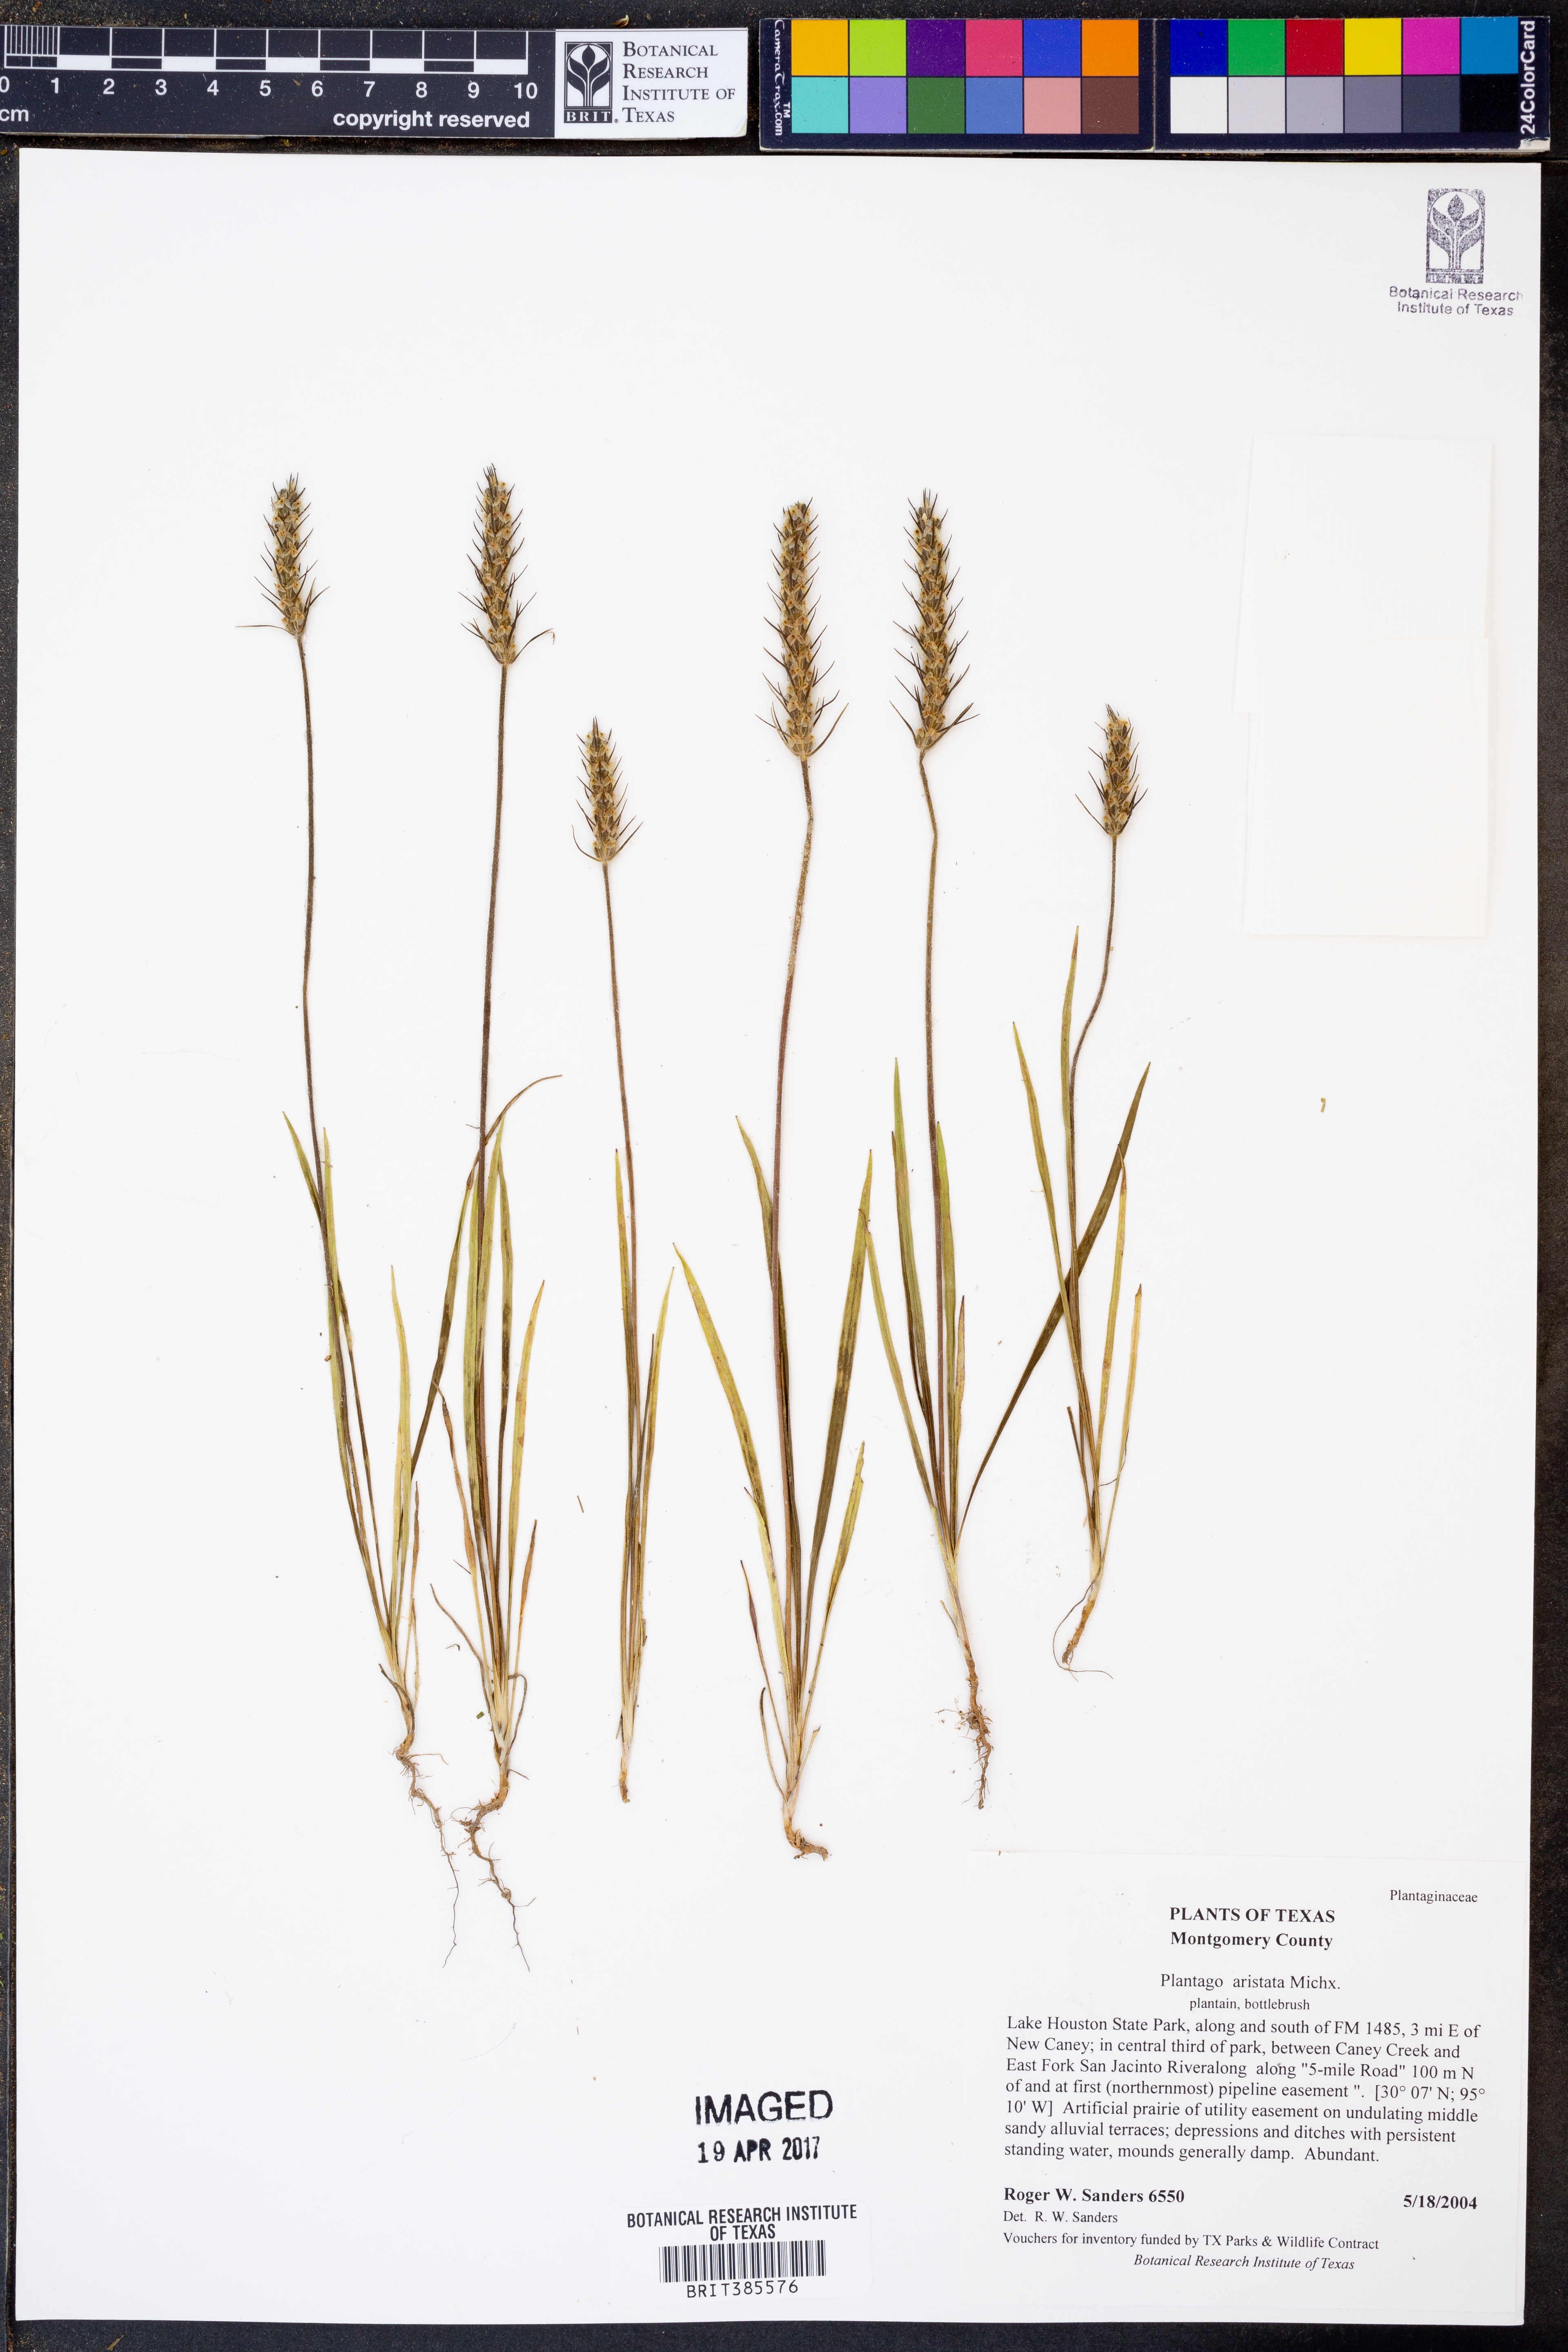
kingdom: Plantae
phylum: Tracheophyta
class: Magnoliopsida
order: Lamiales
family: Plantaginaceae
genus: Plantago
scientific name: Plantago aristata
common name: Bracted plantain
